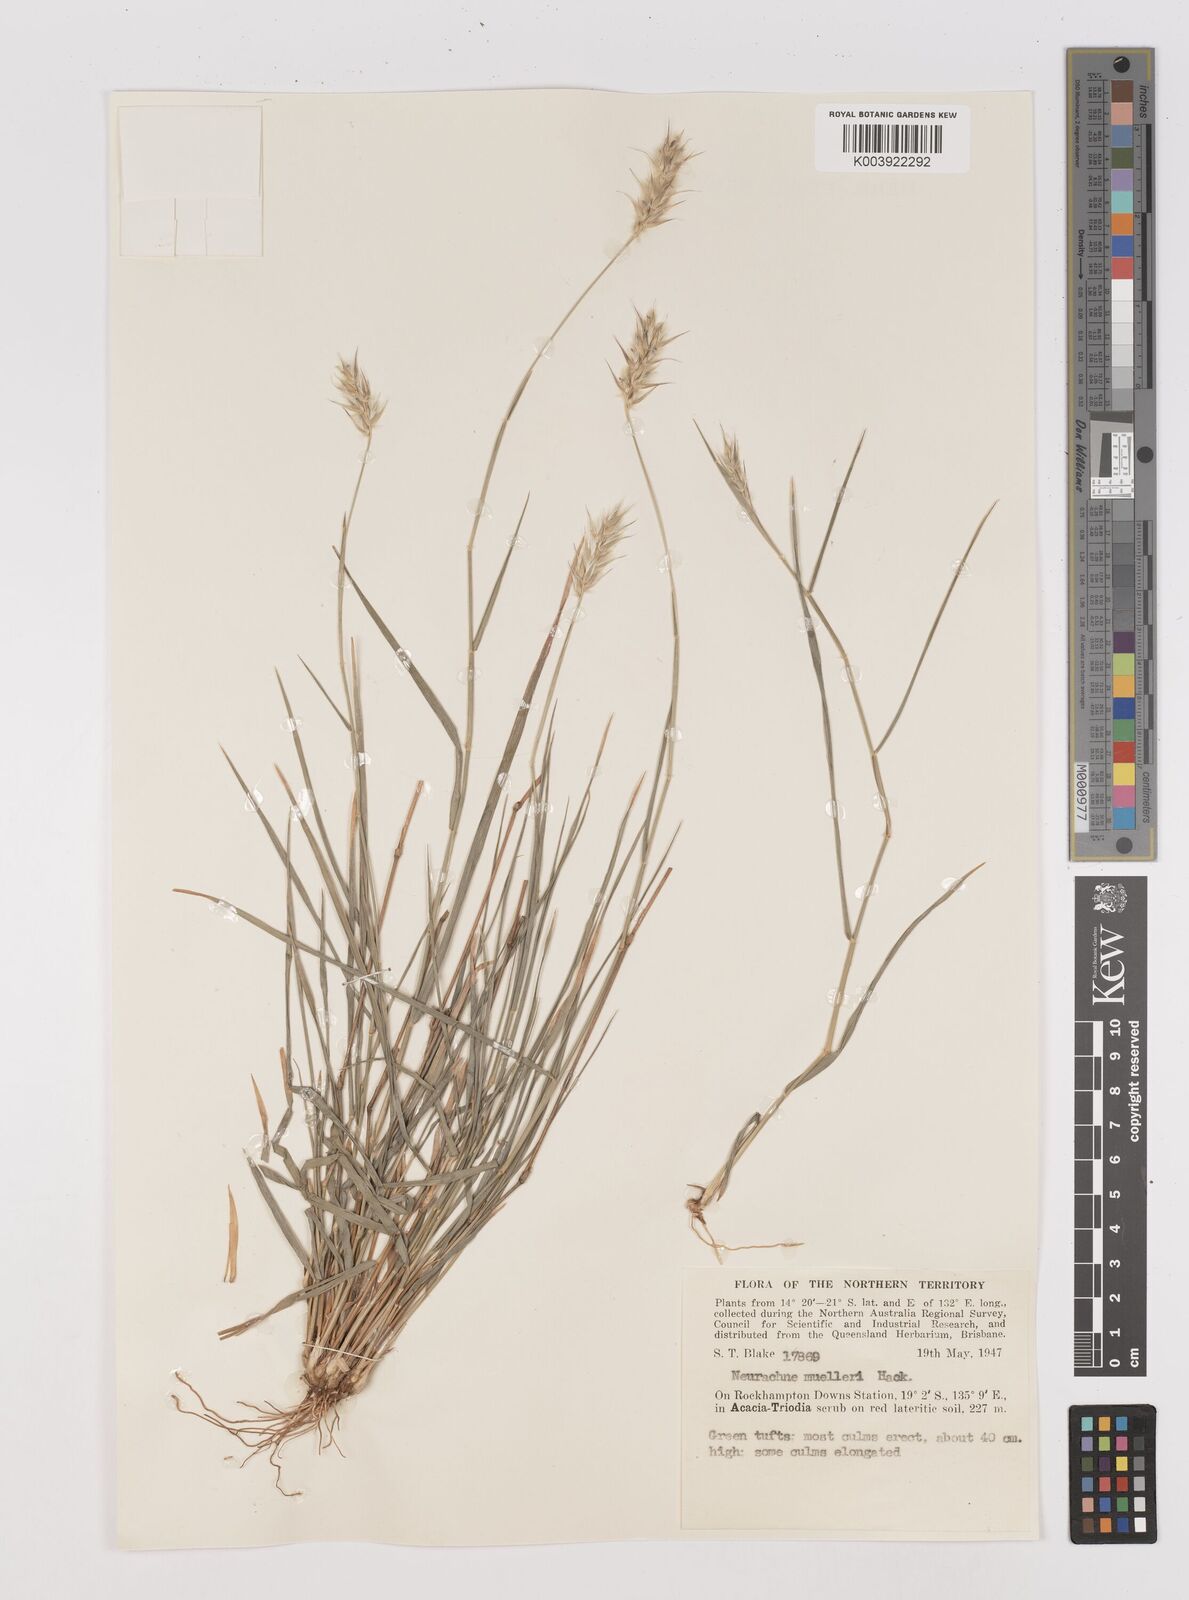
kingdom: Plantae
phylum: Tracheophyta
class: Liliopsida
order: Poales
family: Poaceae
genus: Neurachne
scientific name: Neurachne muelleri
